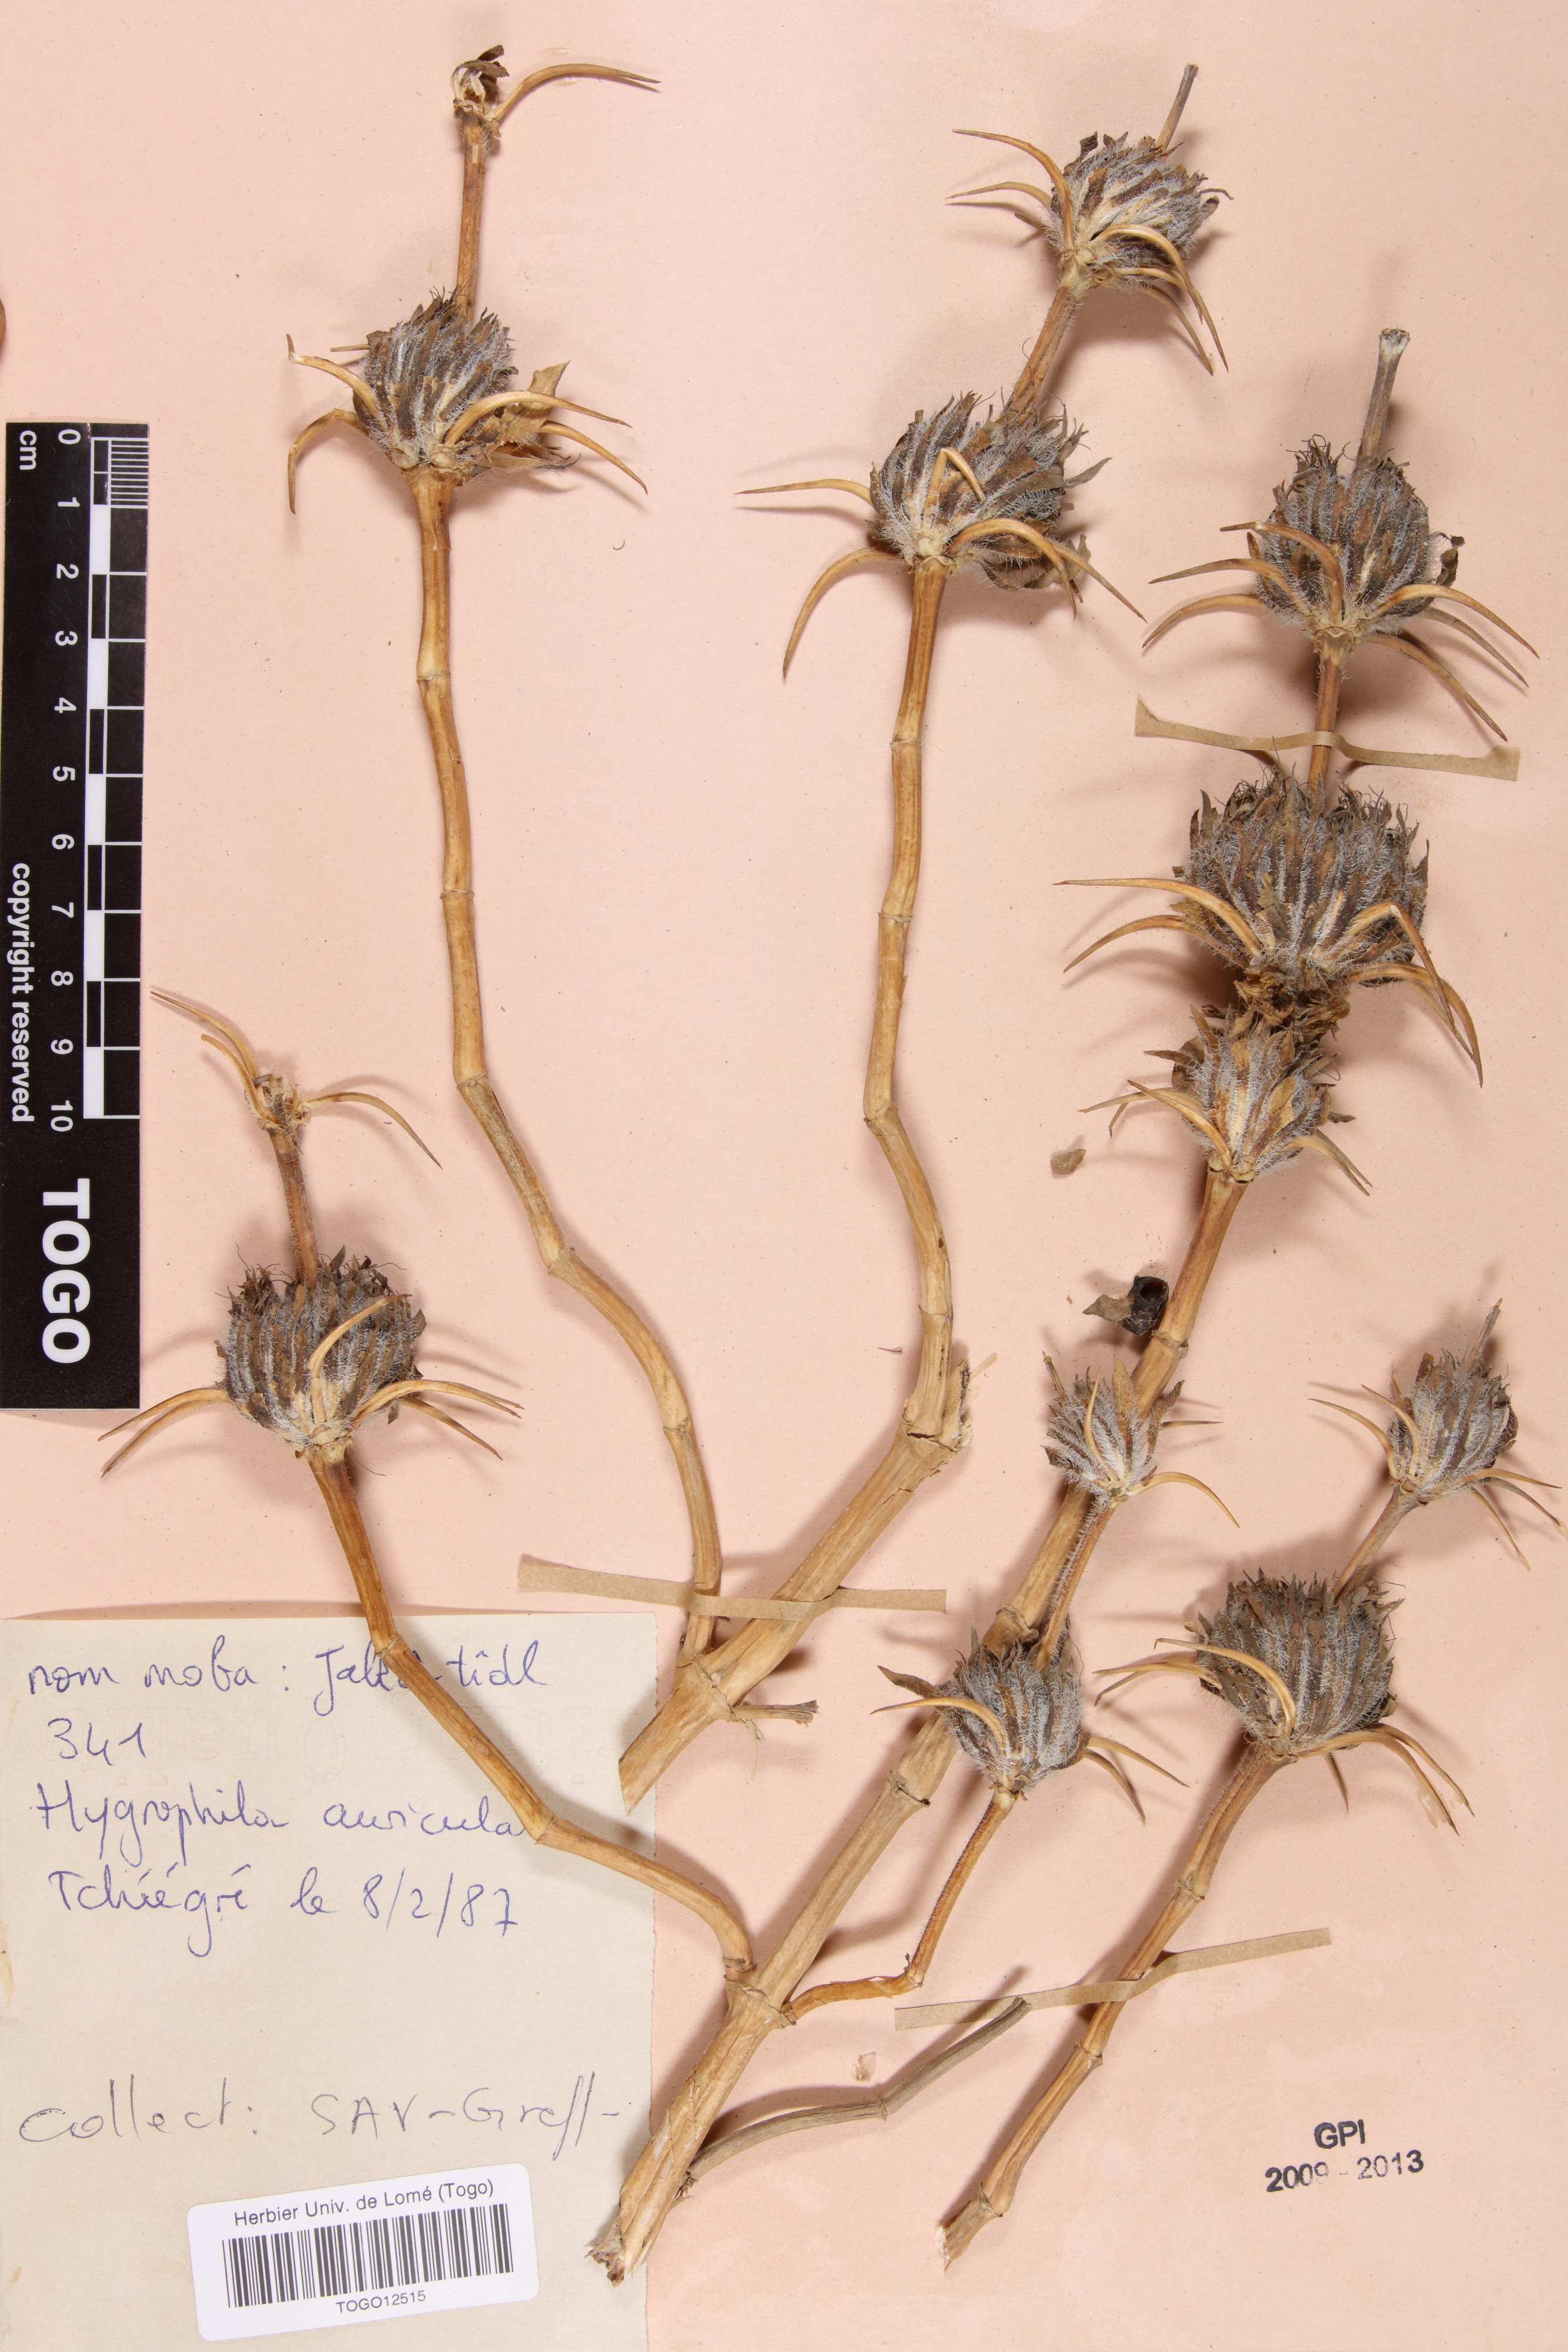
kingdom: Plantae
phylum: Tracheophyta
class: Magnoliopsida
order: Lamiales
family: Acanthaceae
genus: Hygrophila
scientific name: Hygrophila auriculata
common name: Hygrophila
